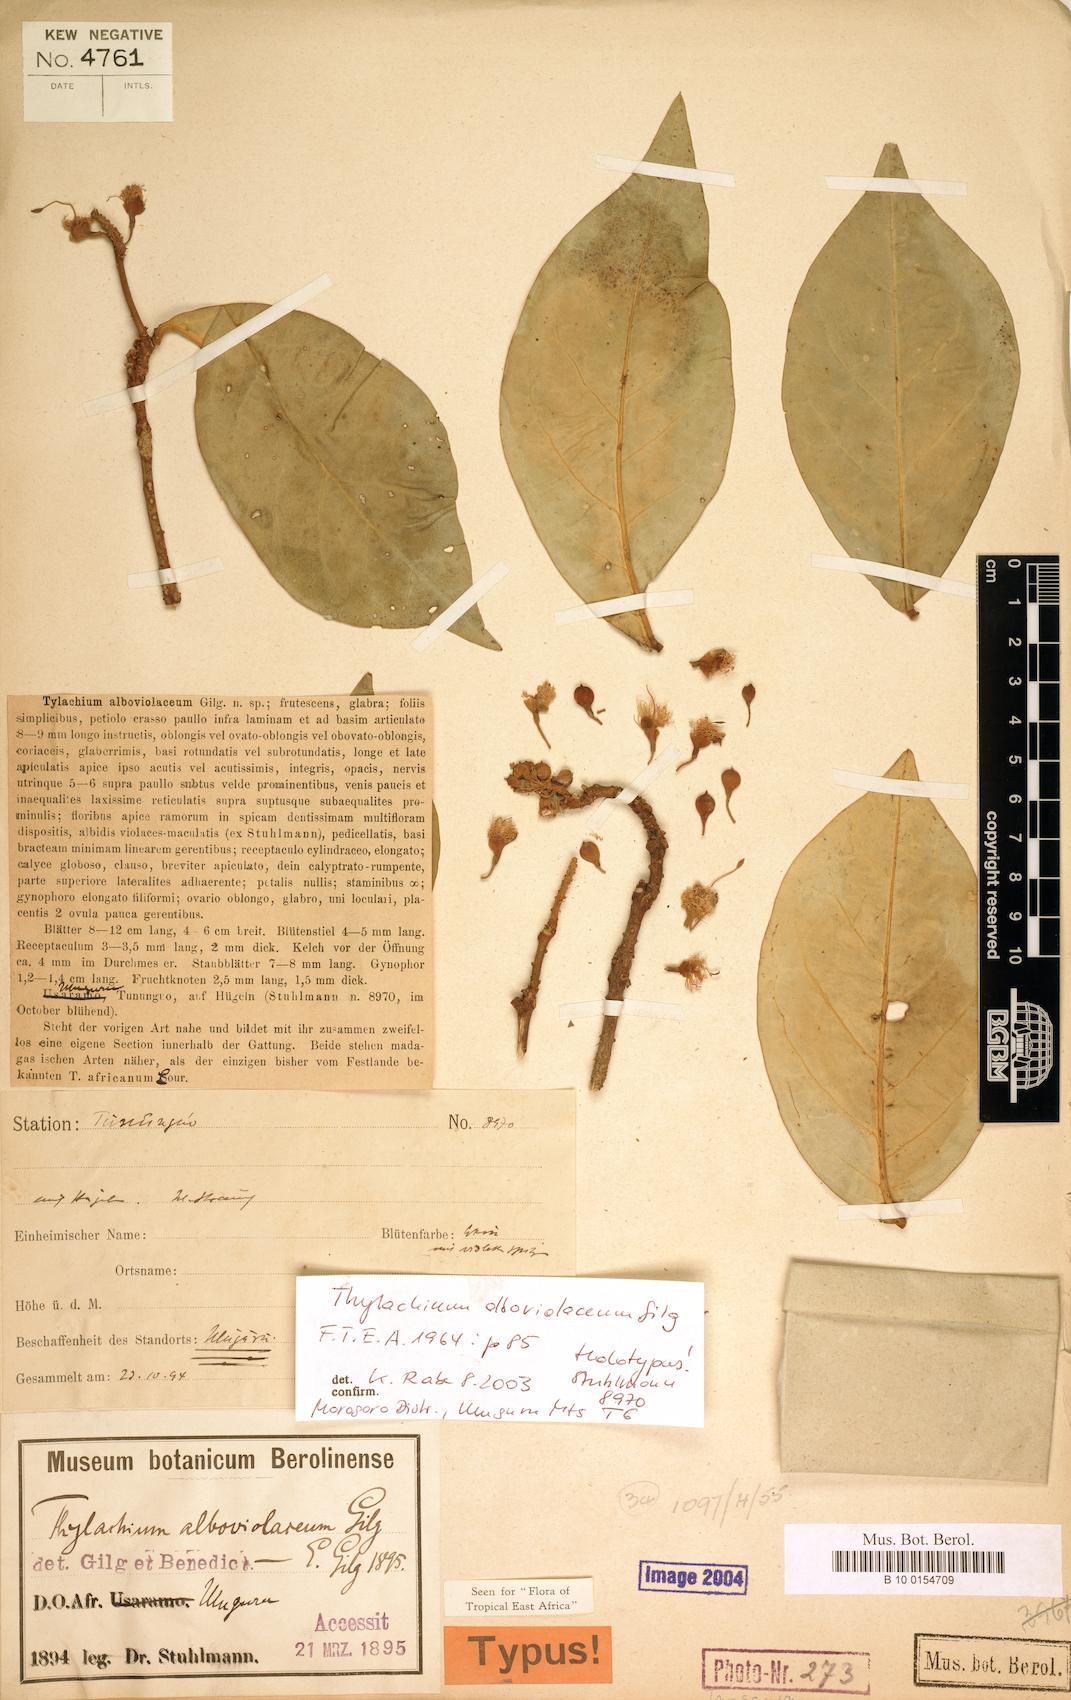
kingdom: Plantae
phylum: Tracheophyta
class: Magnoliopsida
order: Brassicales
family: Capparaceae
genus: Thilachium
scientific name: Thilachium densiflorum
